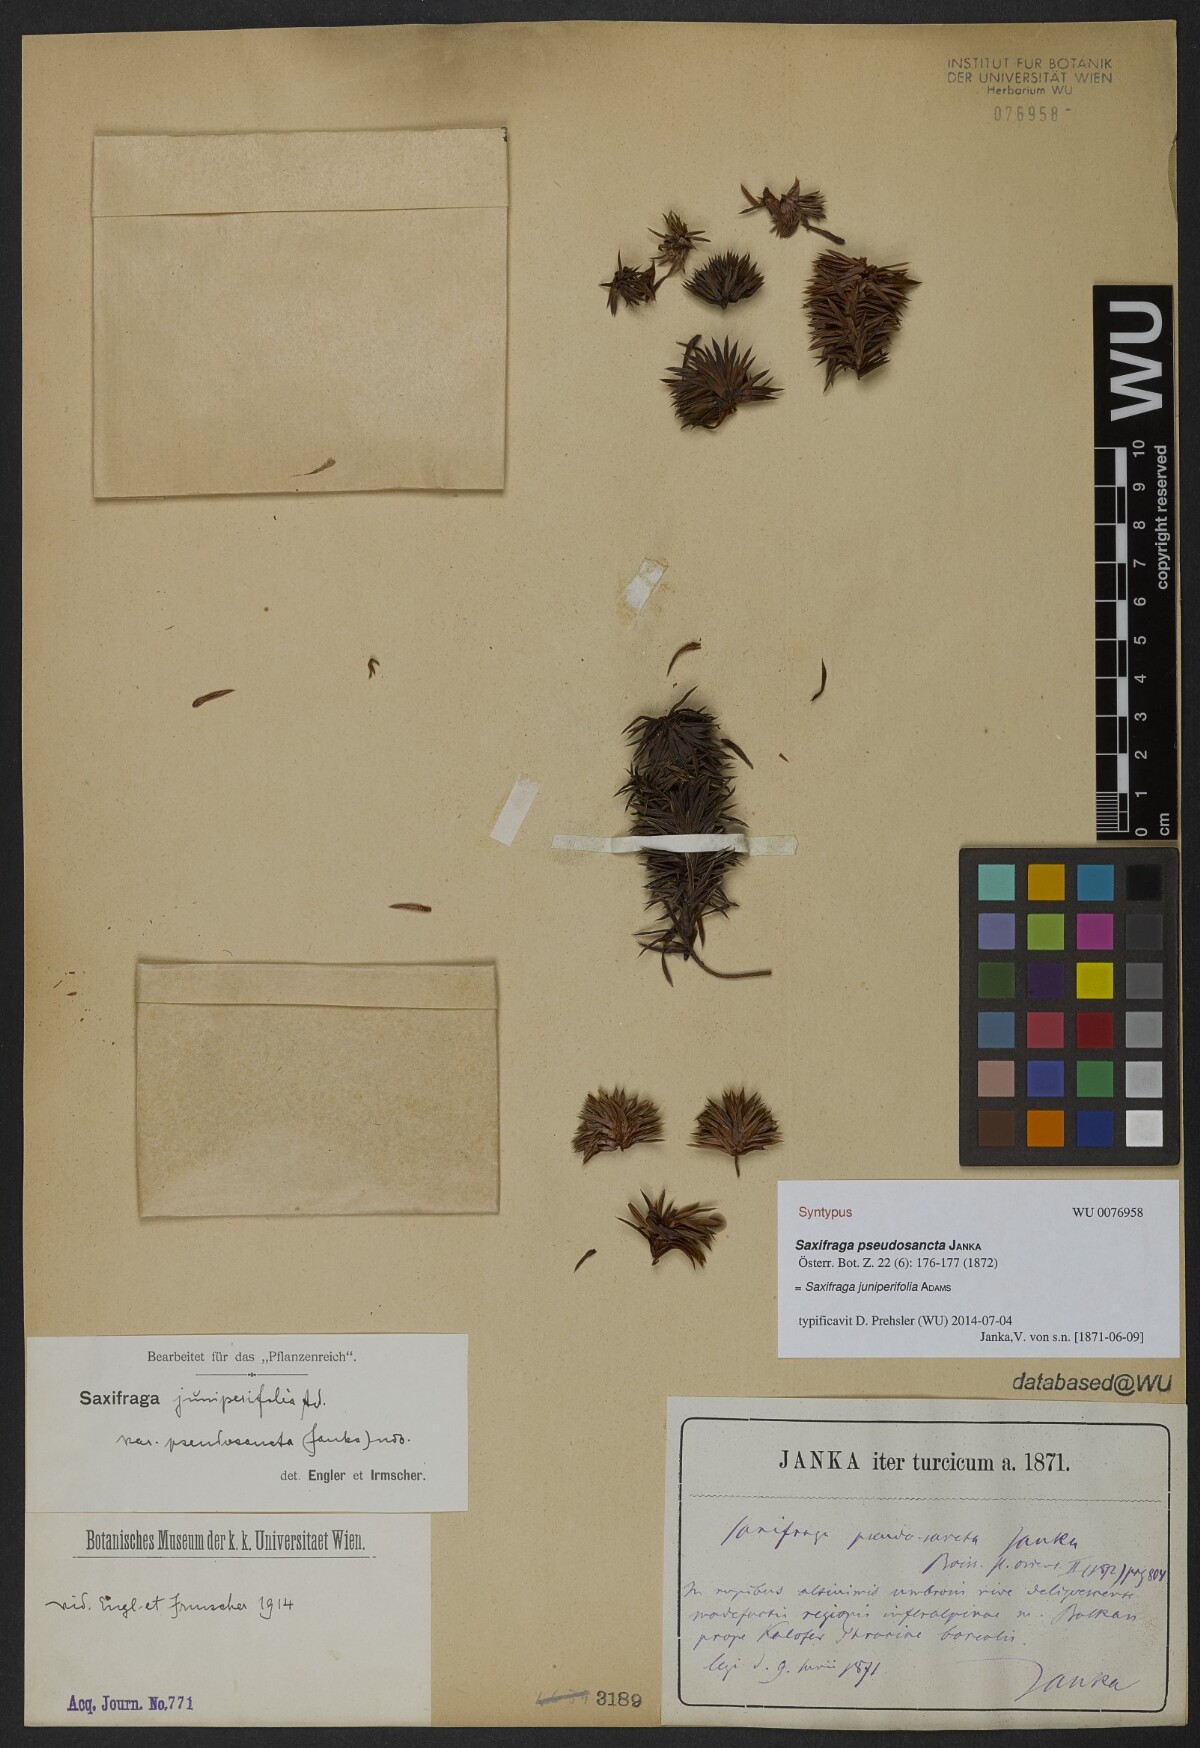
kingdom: Plantae
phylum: Tracheophyta
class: Magnoliopsida
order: Saxifragales
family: Saxifragaceae
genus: Saxifraga
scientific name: Saxifraga juniperifolia
